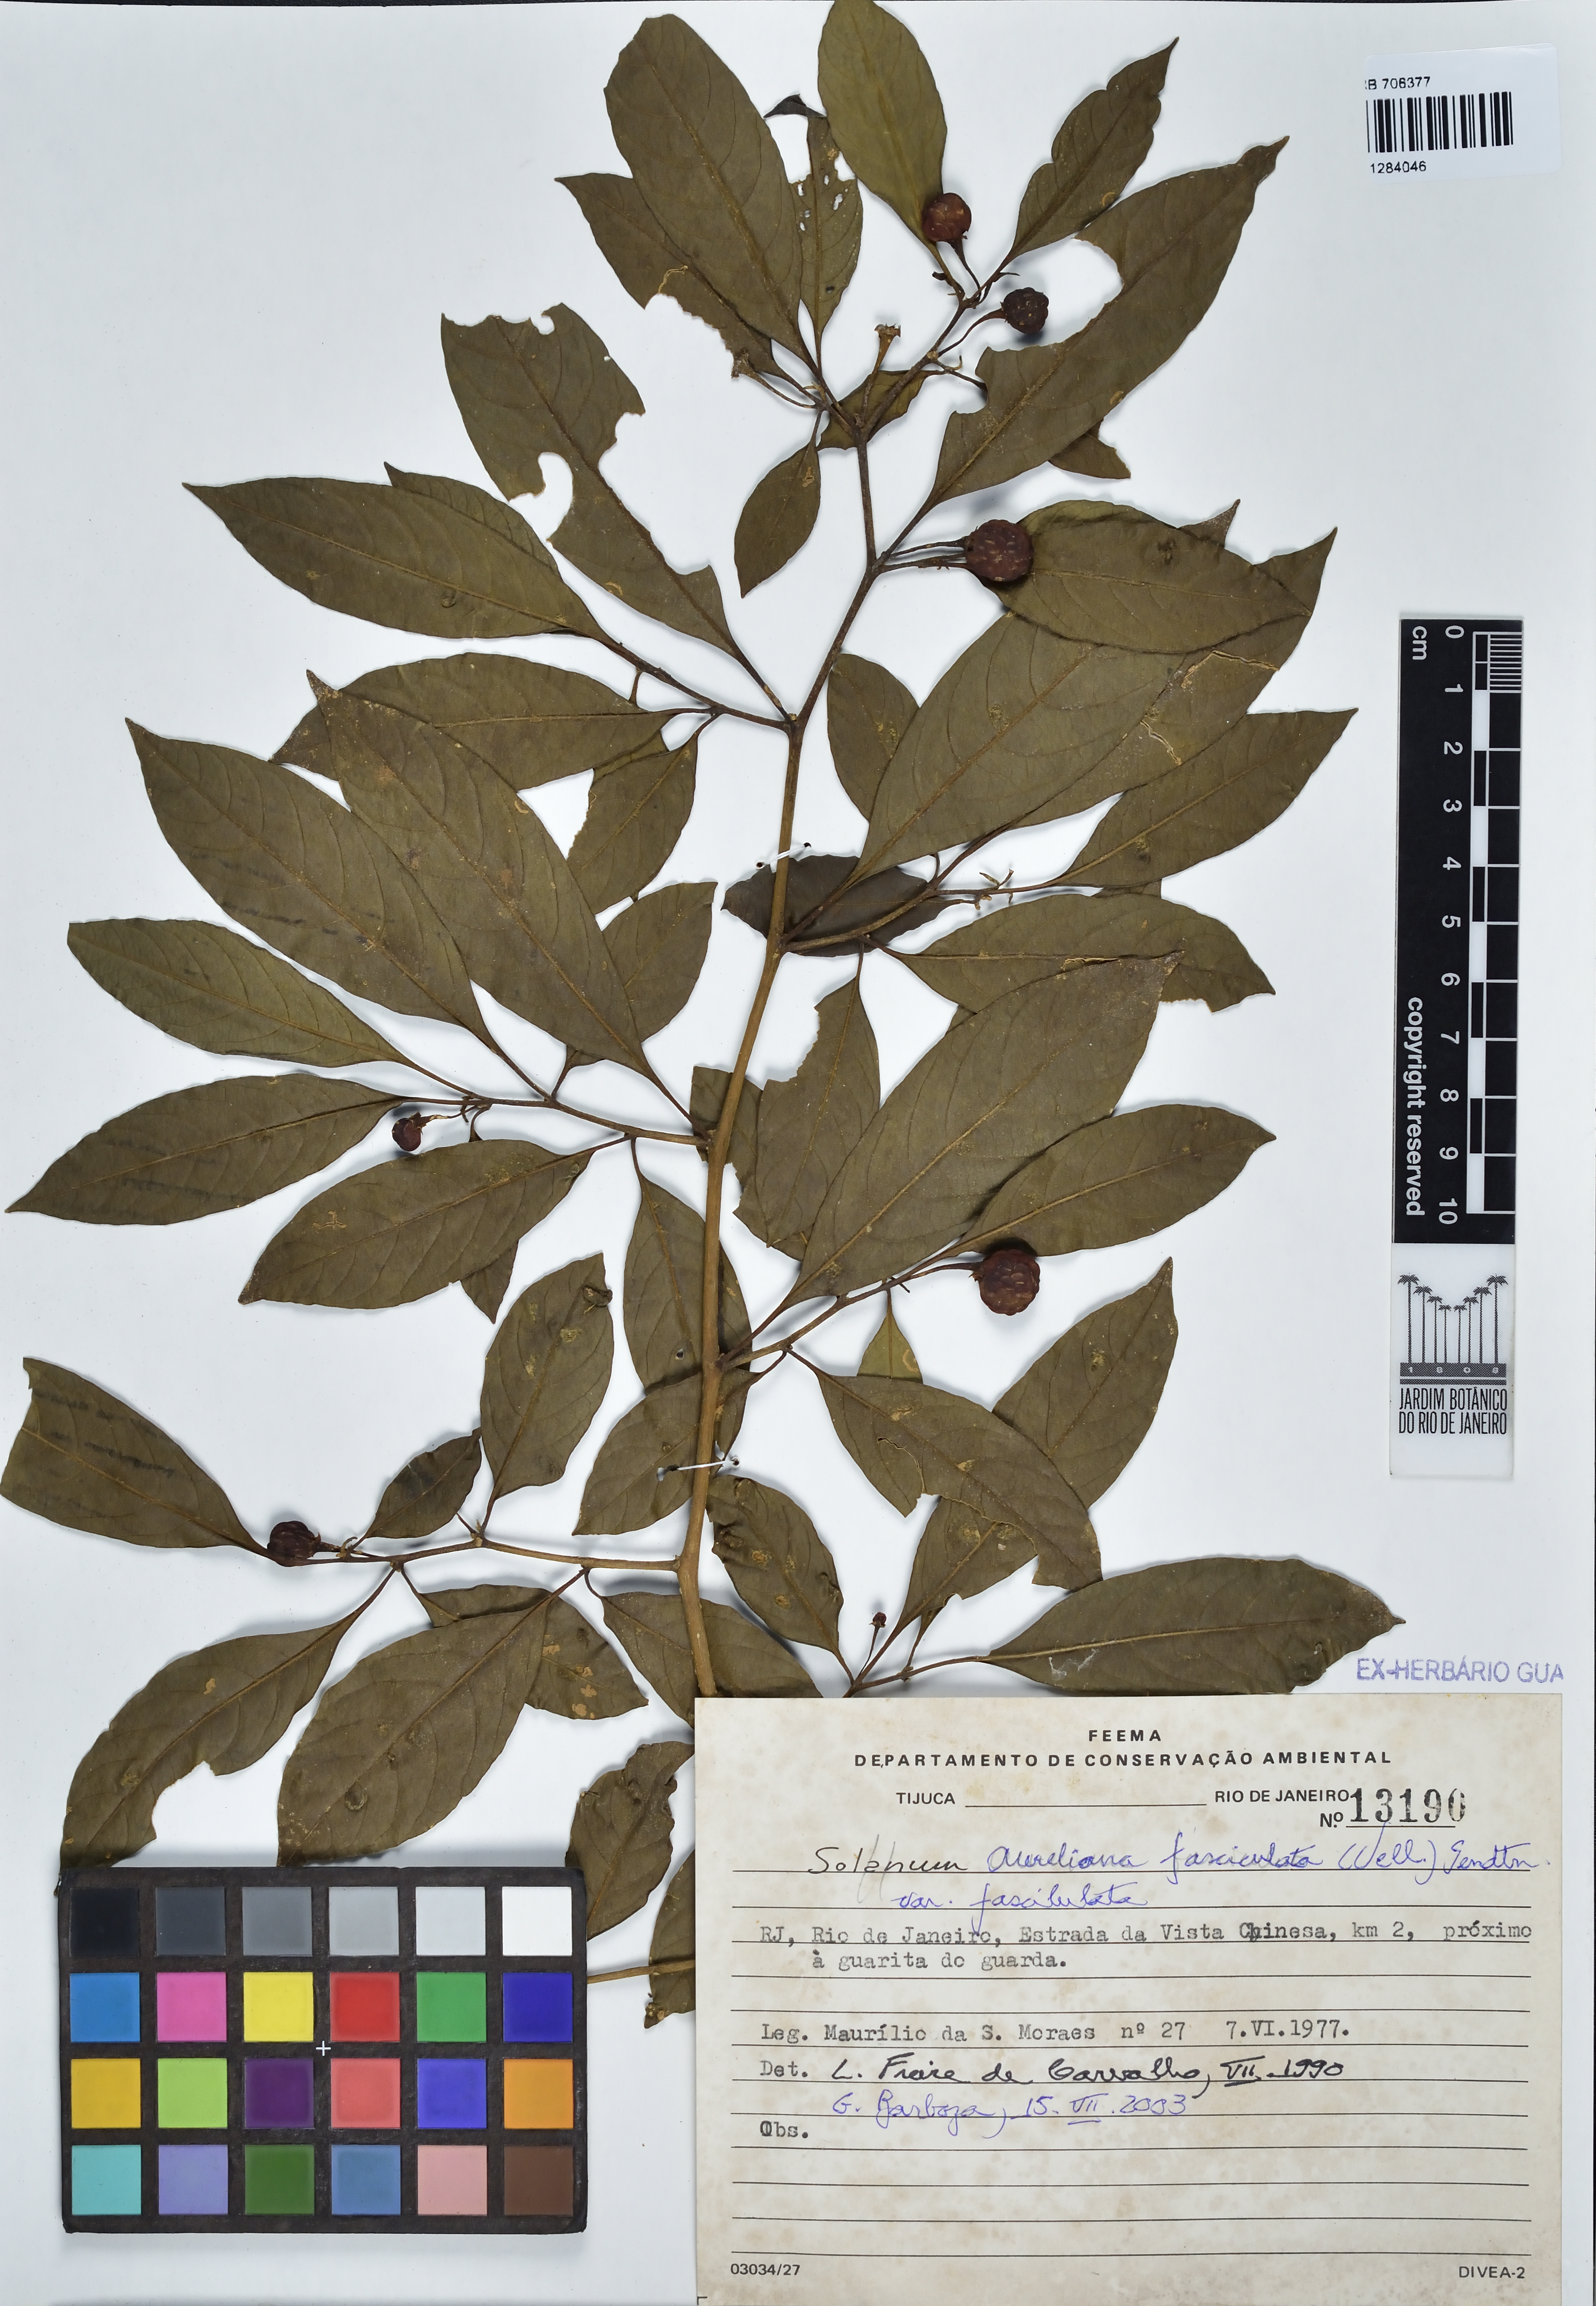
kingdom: Plantae
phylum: Tracheophyta
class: Magnoliopsida
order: Solanales
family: Solanaceae
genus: Athenaea
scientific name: Athenaea fasciculata
